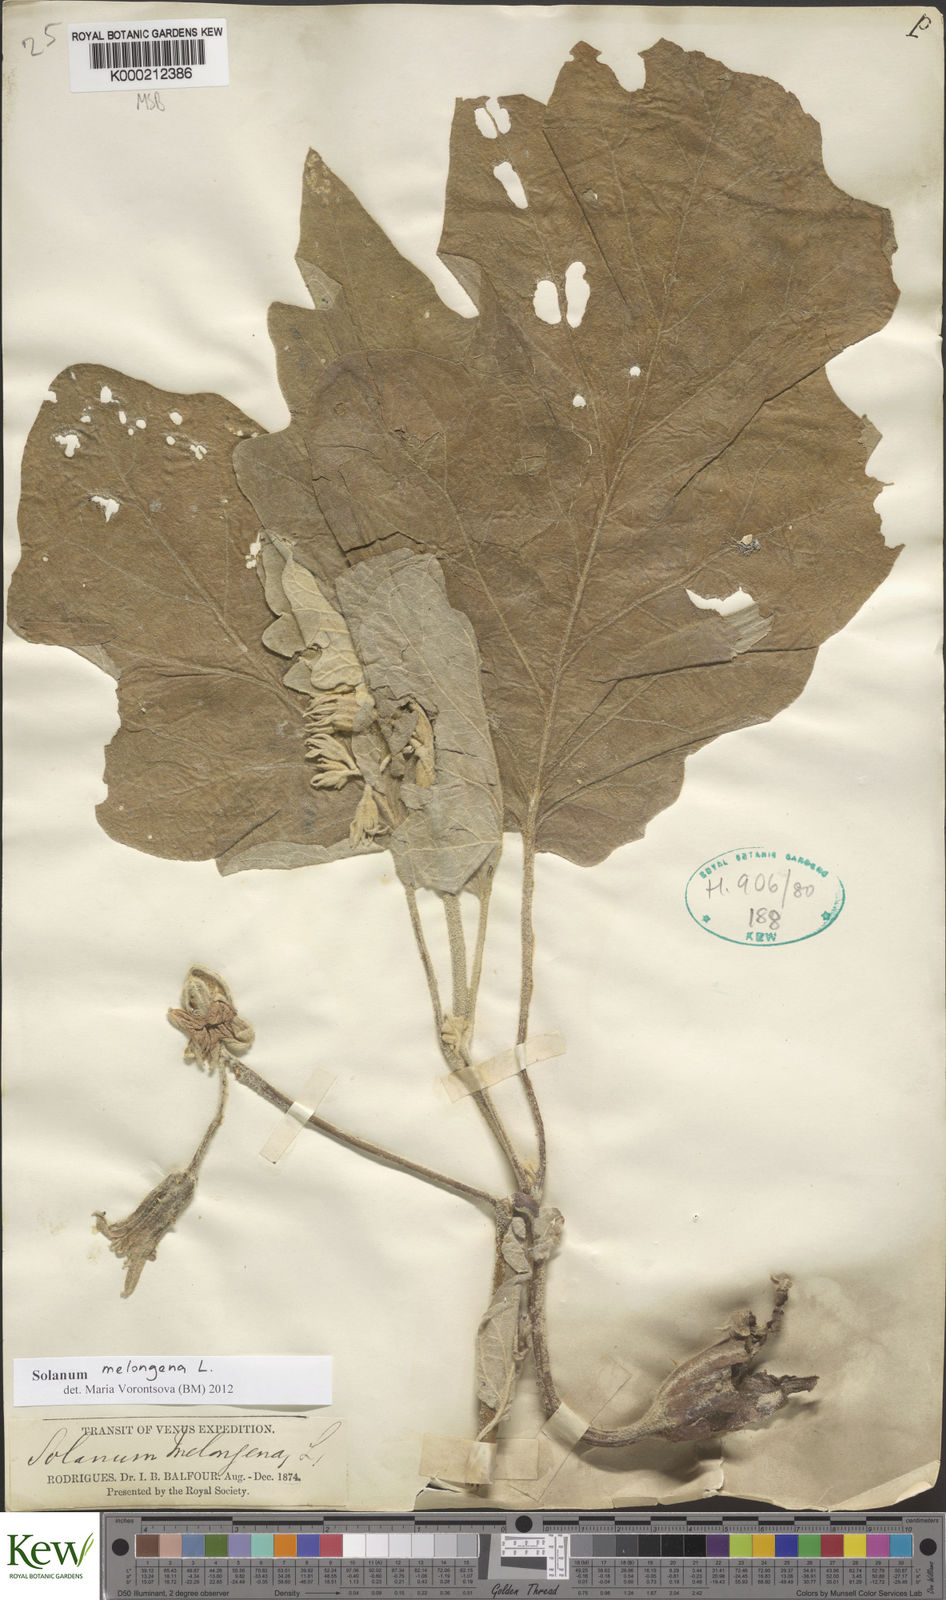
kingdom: Plantae
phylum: Tracheophyta
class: Magnoliopsida
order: Solanales
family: Solanaceae
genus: Solanum
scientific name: Solanum melongena
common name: Eggplant
